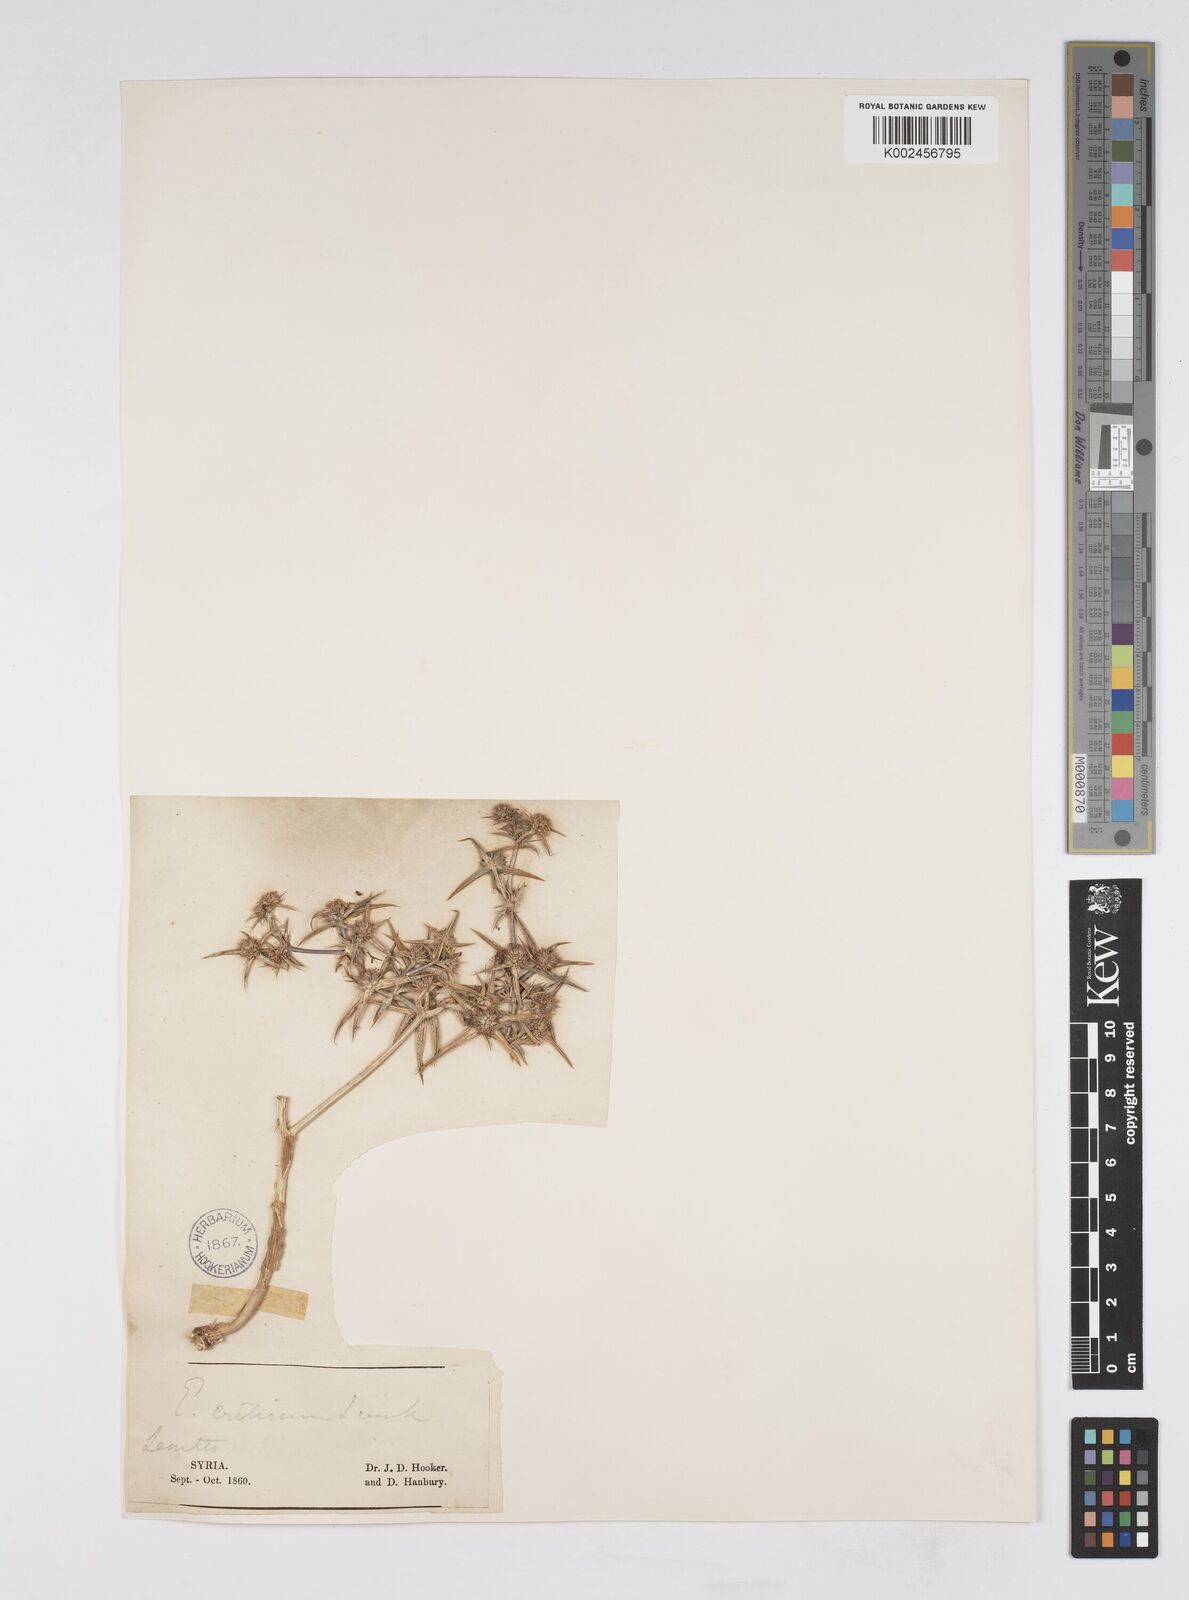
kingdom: Plantae
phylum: Tracheophyta
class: Magnoliopsida
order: Apiales
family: Apiaceae
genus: Eryngium
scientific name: Eryngium creticum
